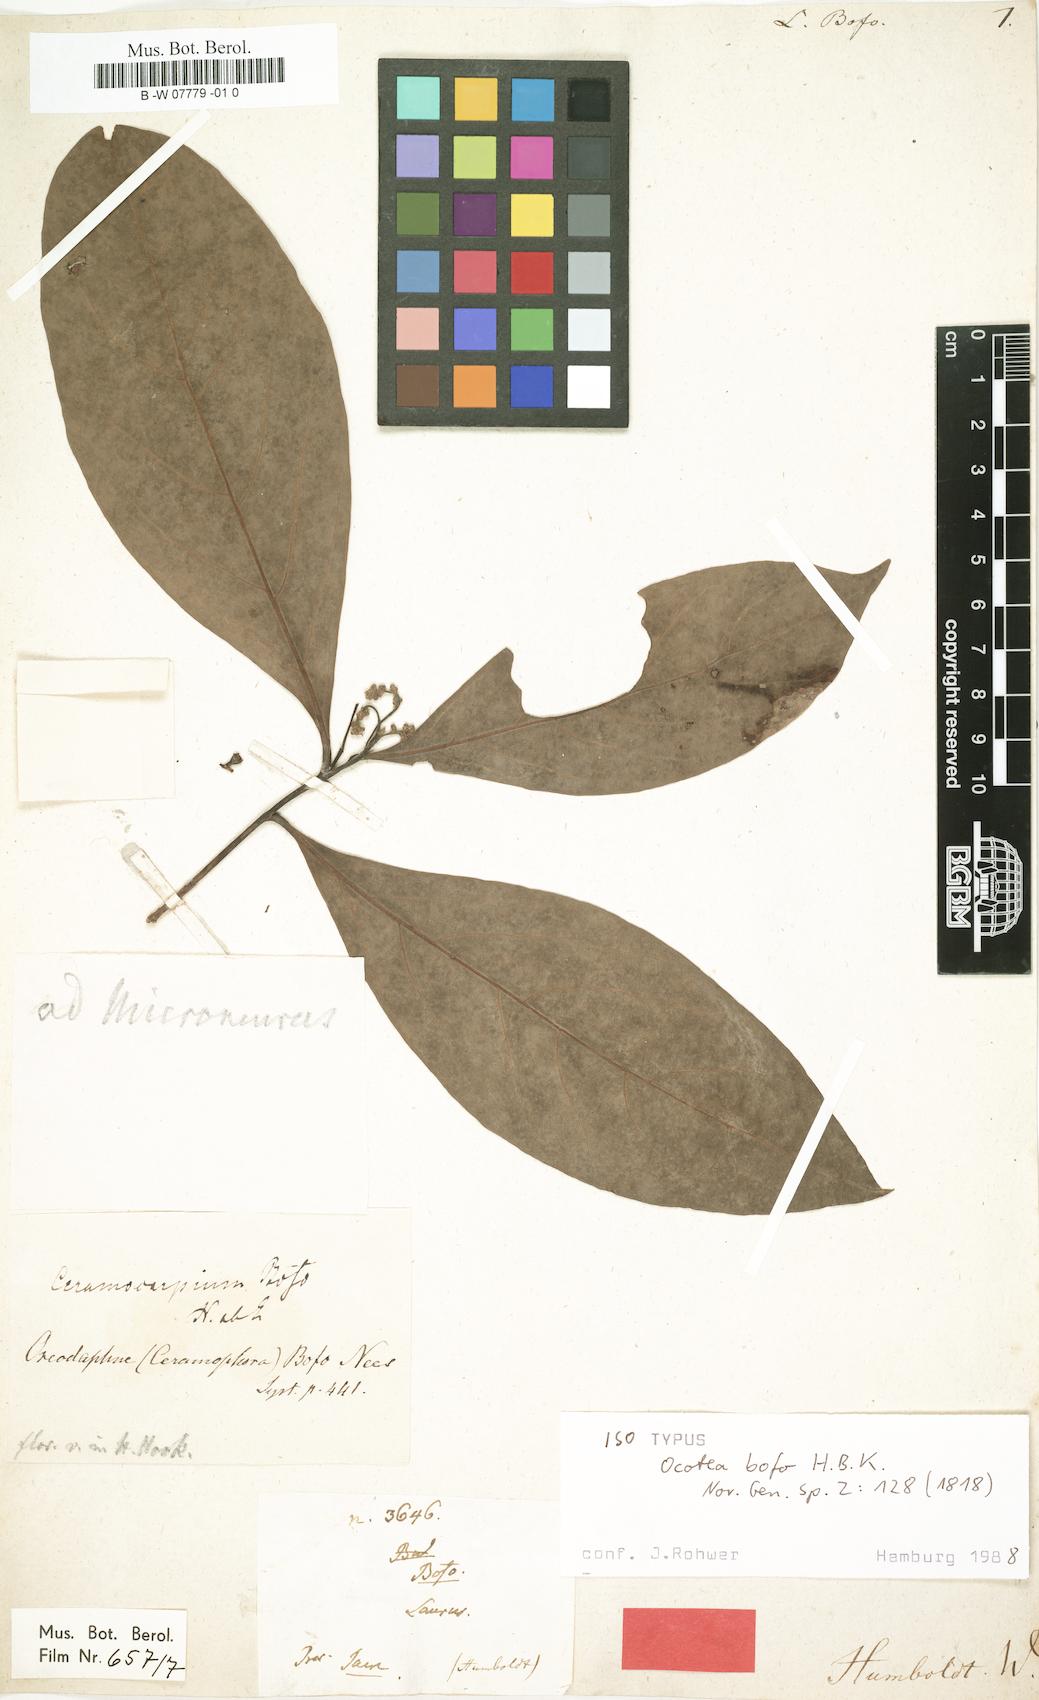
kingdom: Plantae
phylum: Tracheophyta
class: Magnoliopsida
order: Laurales
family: Lauraceae
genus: Ocotea
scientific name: Ocotea bofo
